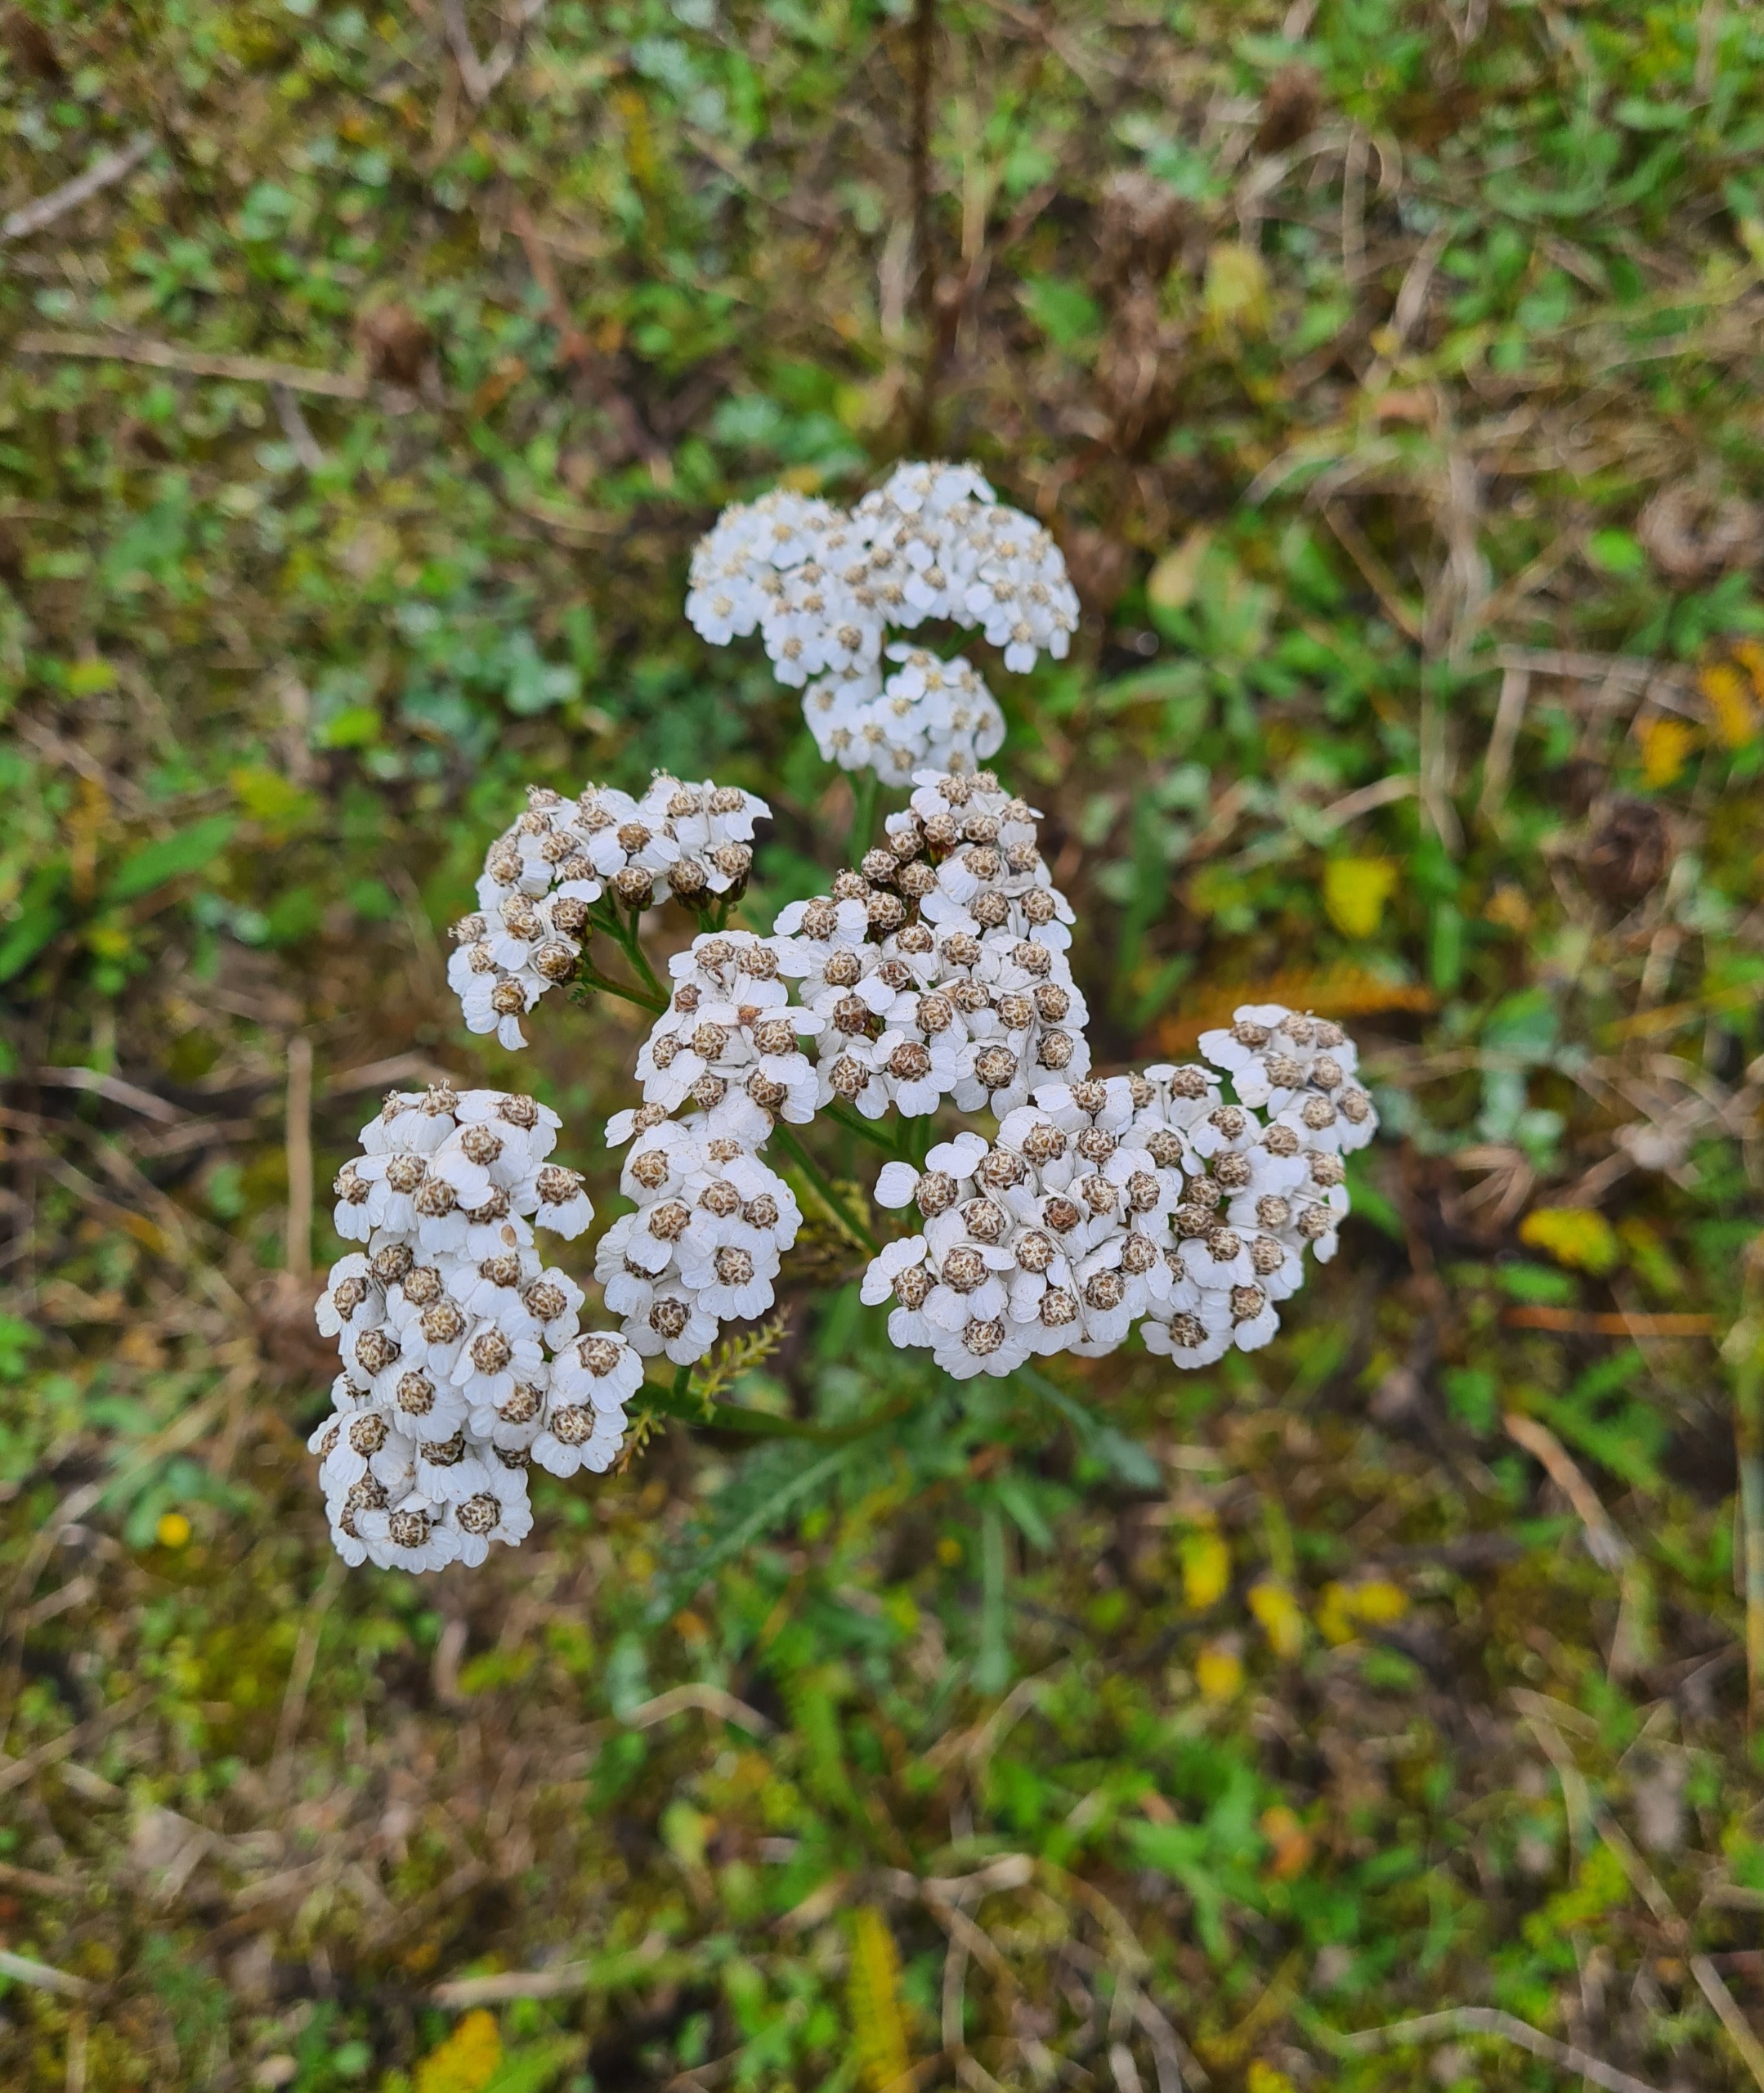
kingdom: Plantae
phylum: Tracheophyta
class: Magnoliopsida
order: Asterales
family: Asteraceae
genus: Achillea
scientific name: Achillea millefolium
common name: Almindelig røllike
